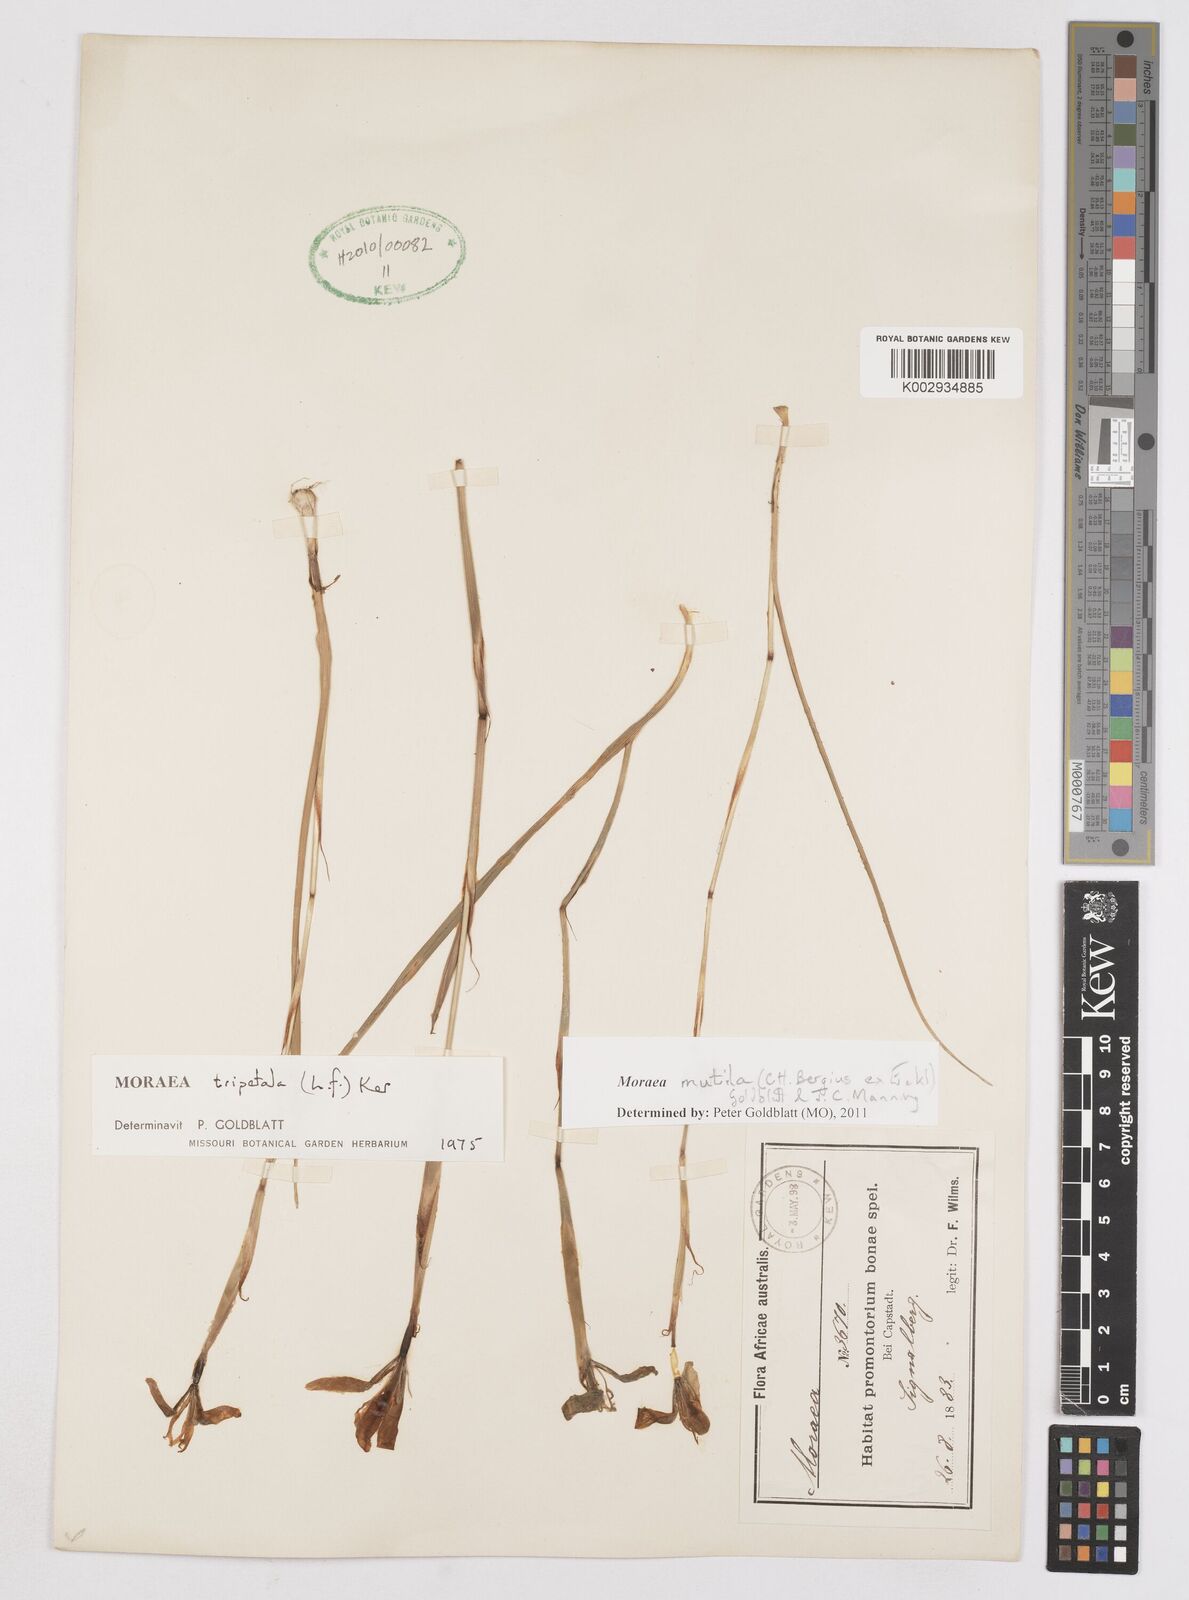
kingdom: Plantae
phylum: Tracheophyta
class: Liliopsida
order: Asparagales
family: Iridaceae
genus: Moraea
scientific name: Moraea punctata
